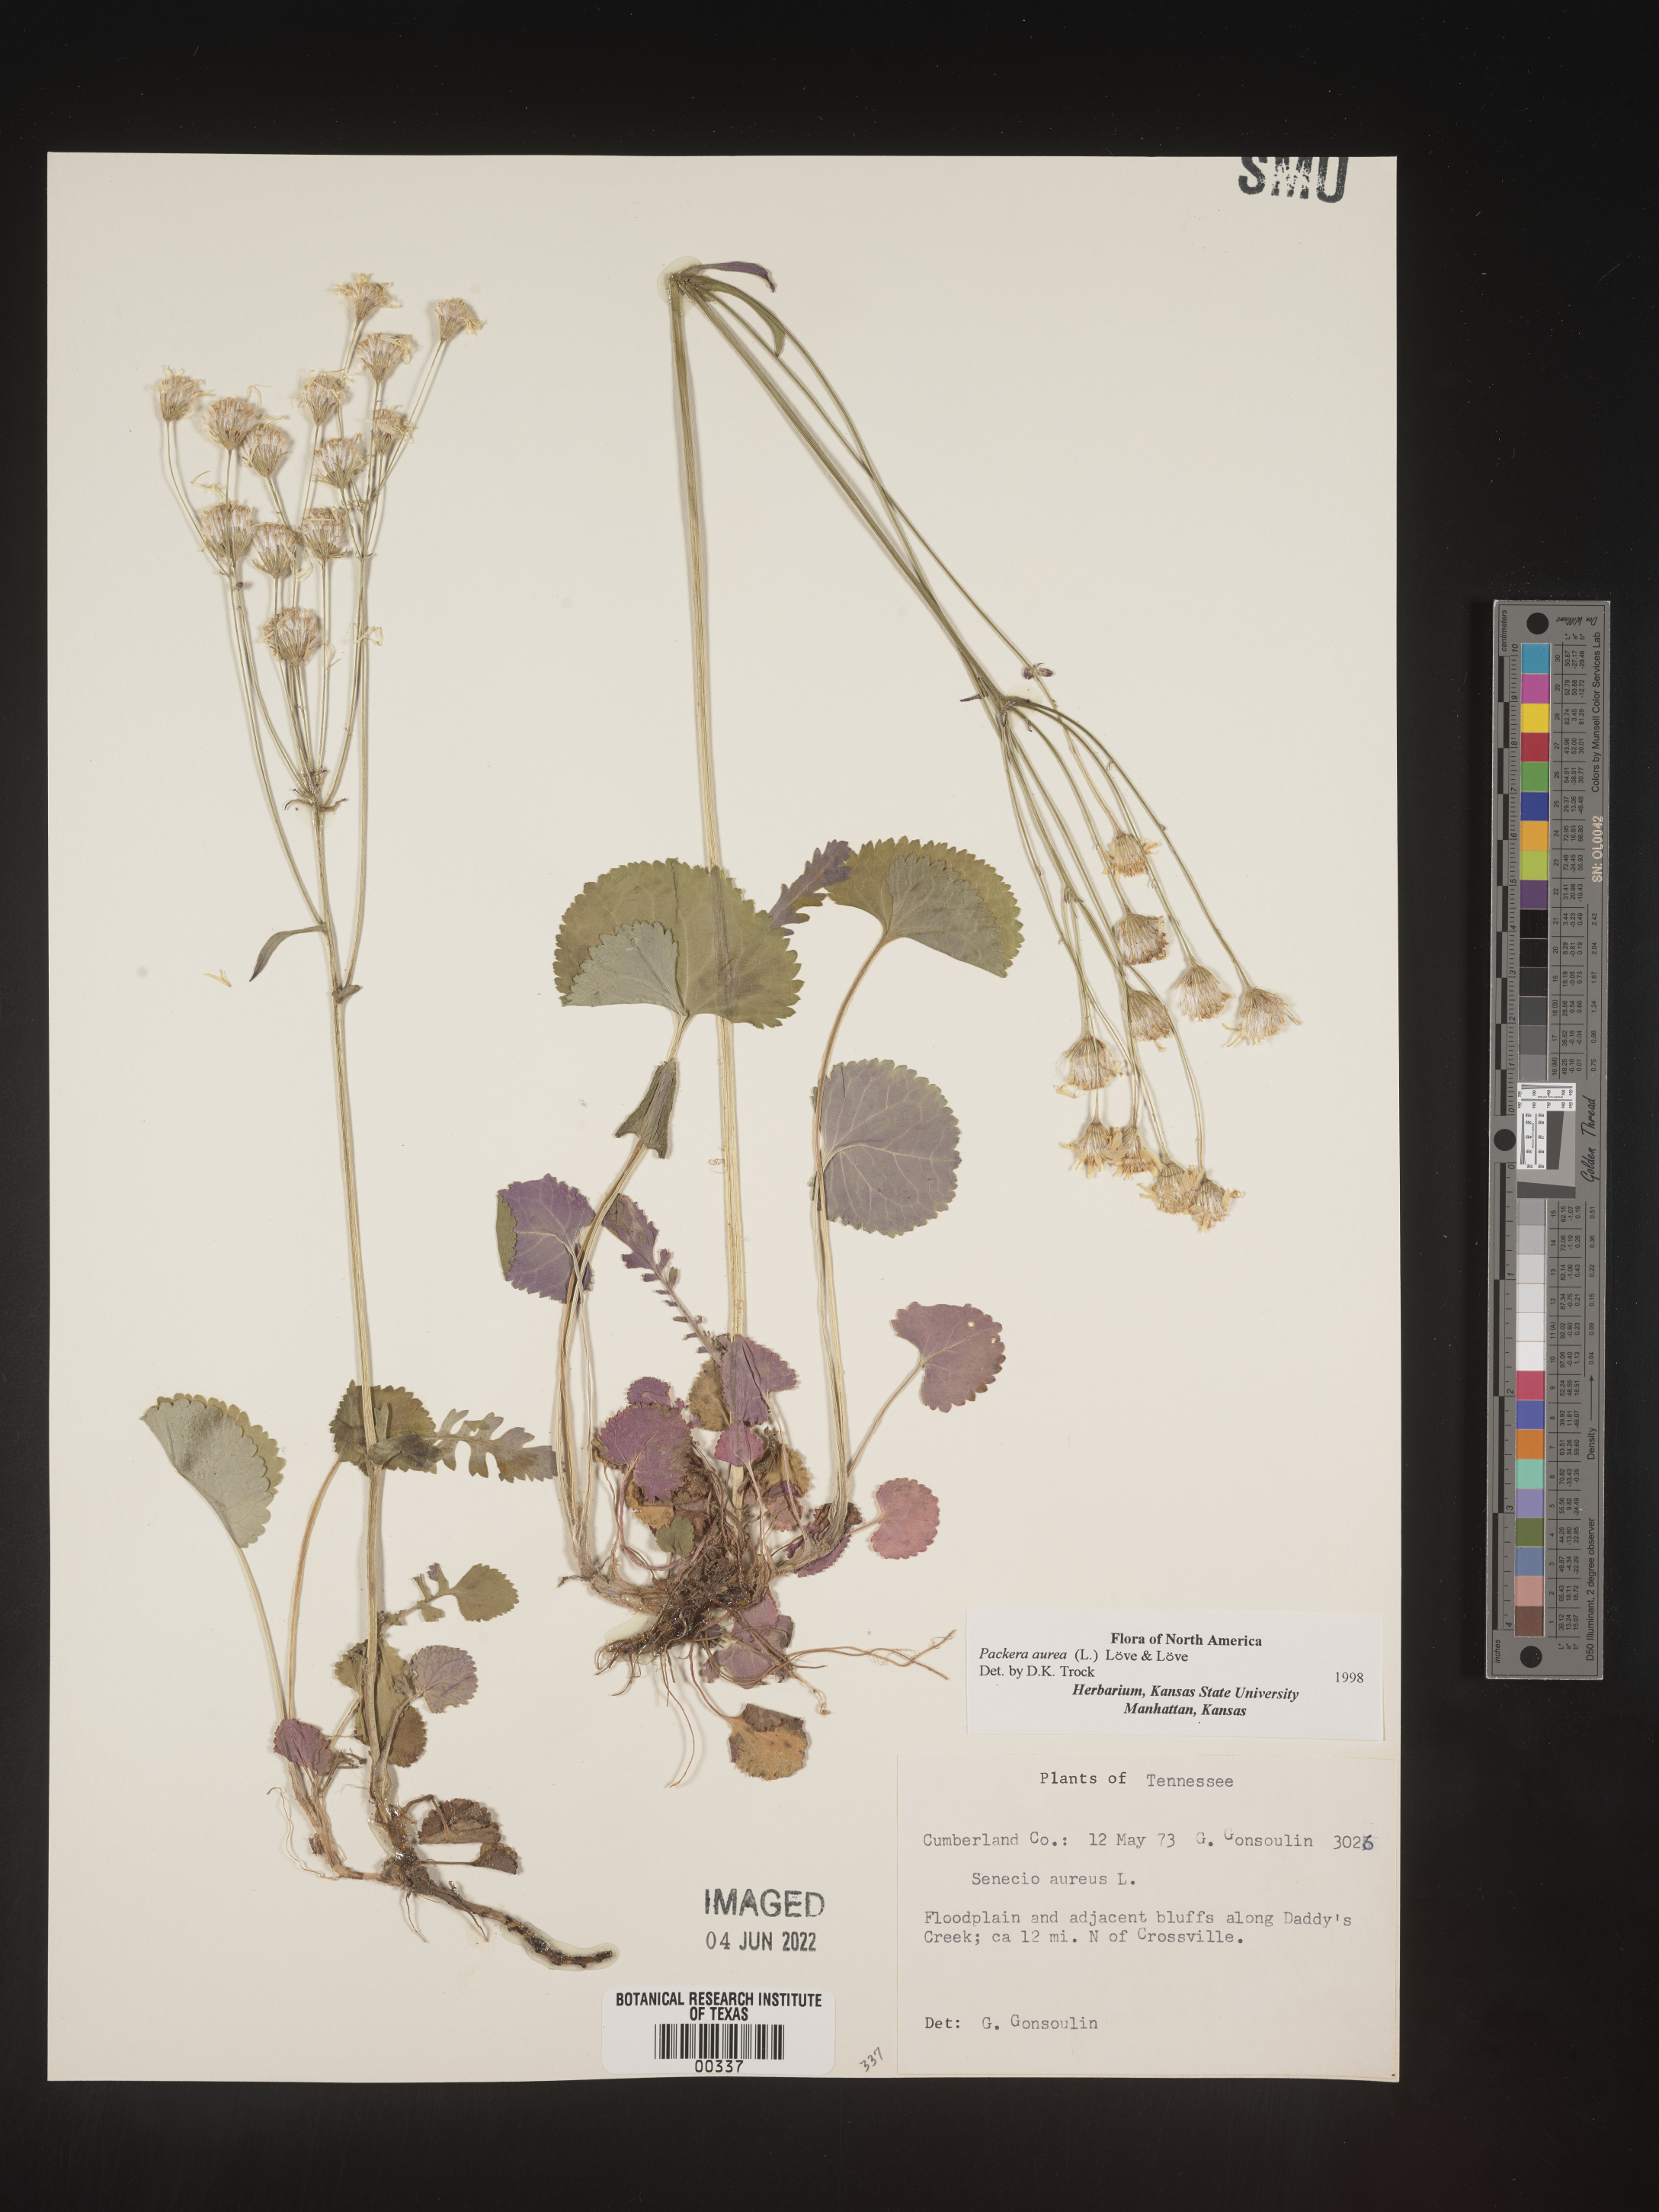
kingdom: Plantae
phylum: Tracheophyta
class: Magnoliopsida
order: Asterales
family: Asteraceae
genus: Packera
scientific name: Packera aurea
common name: Golden groundsel
